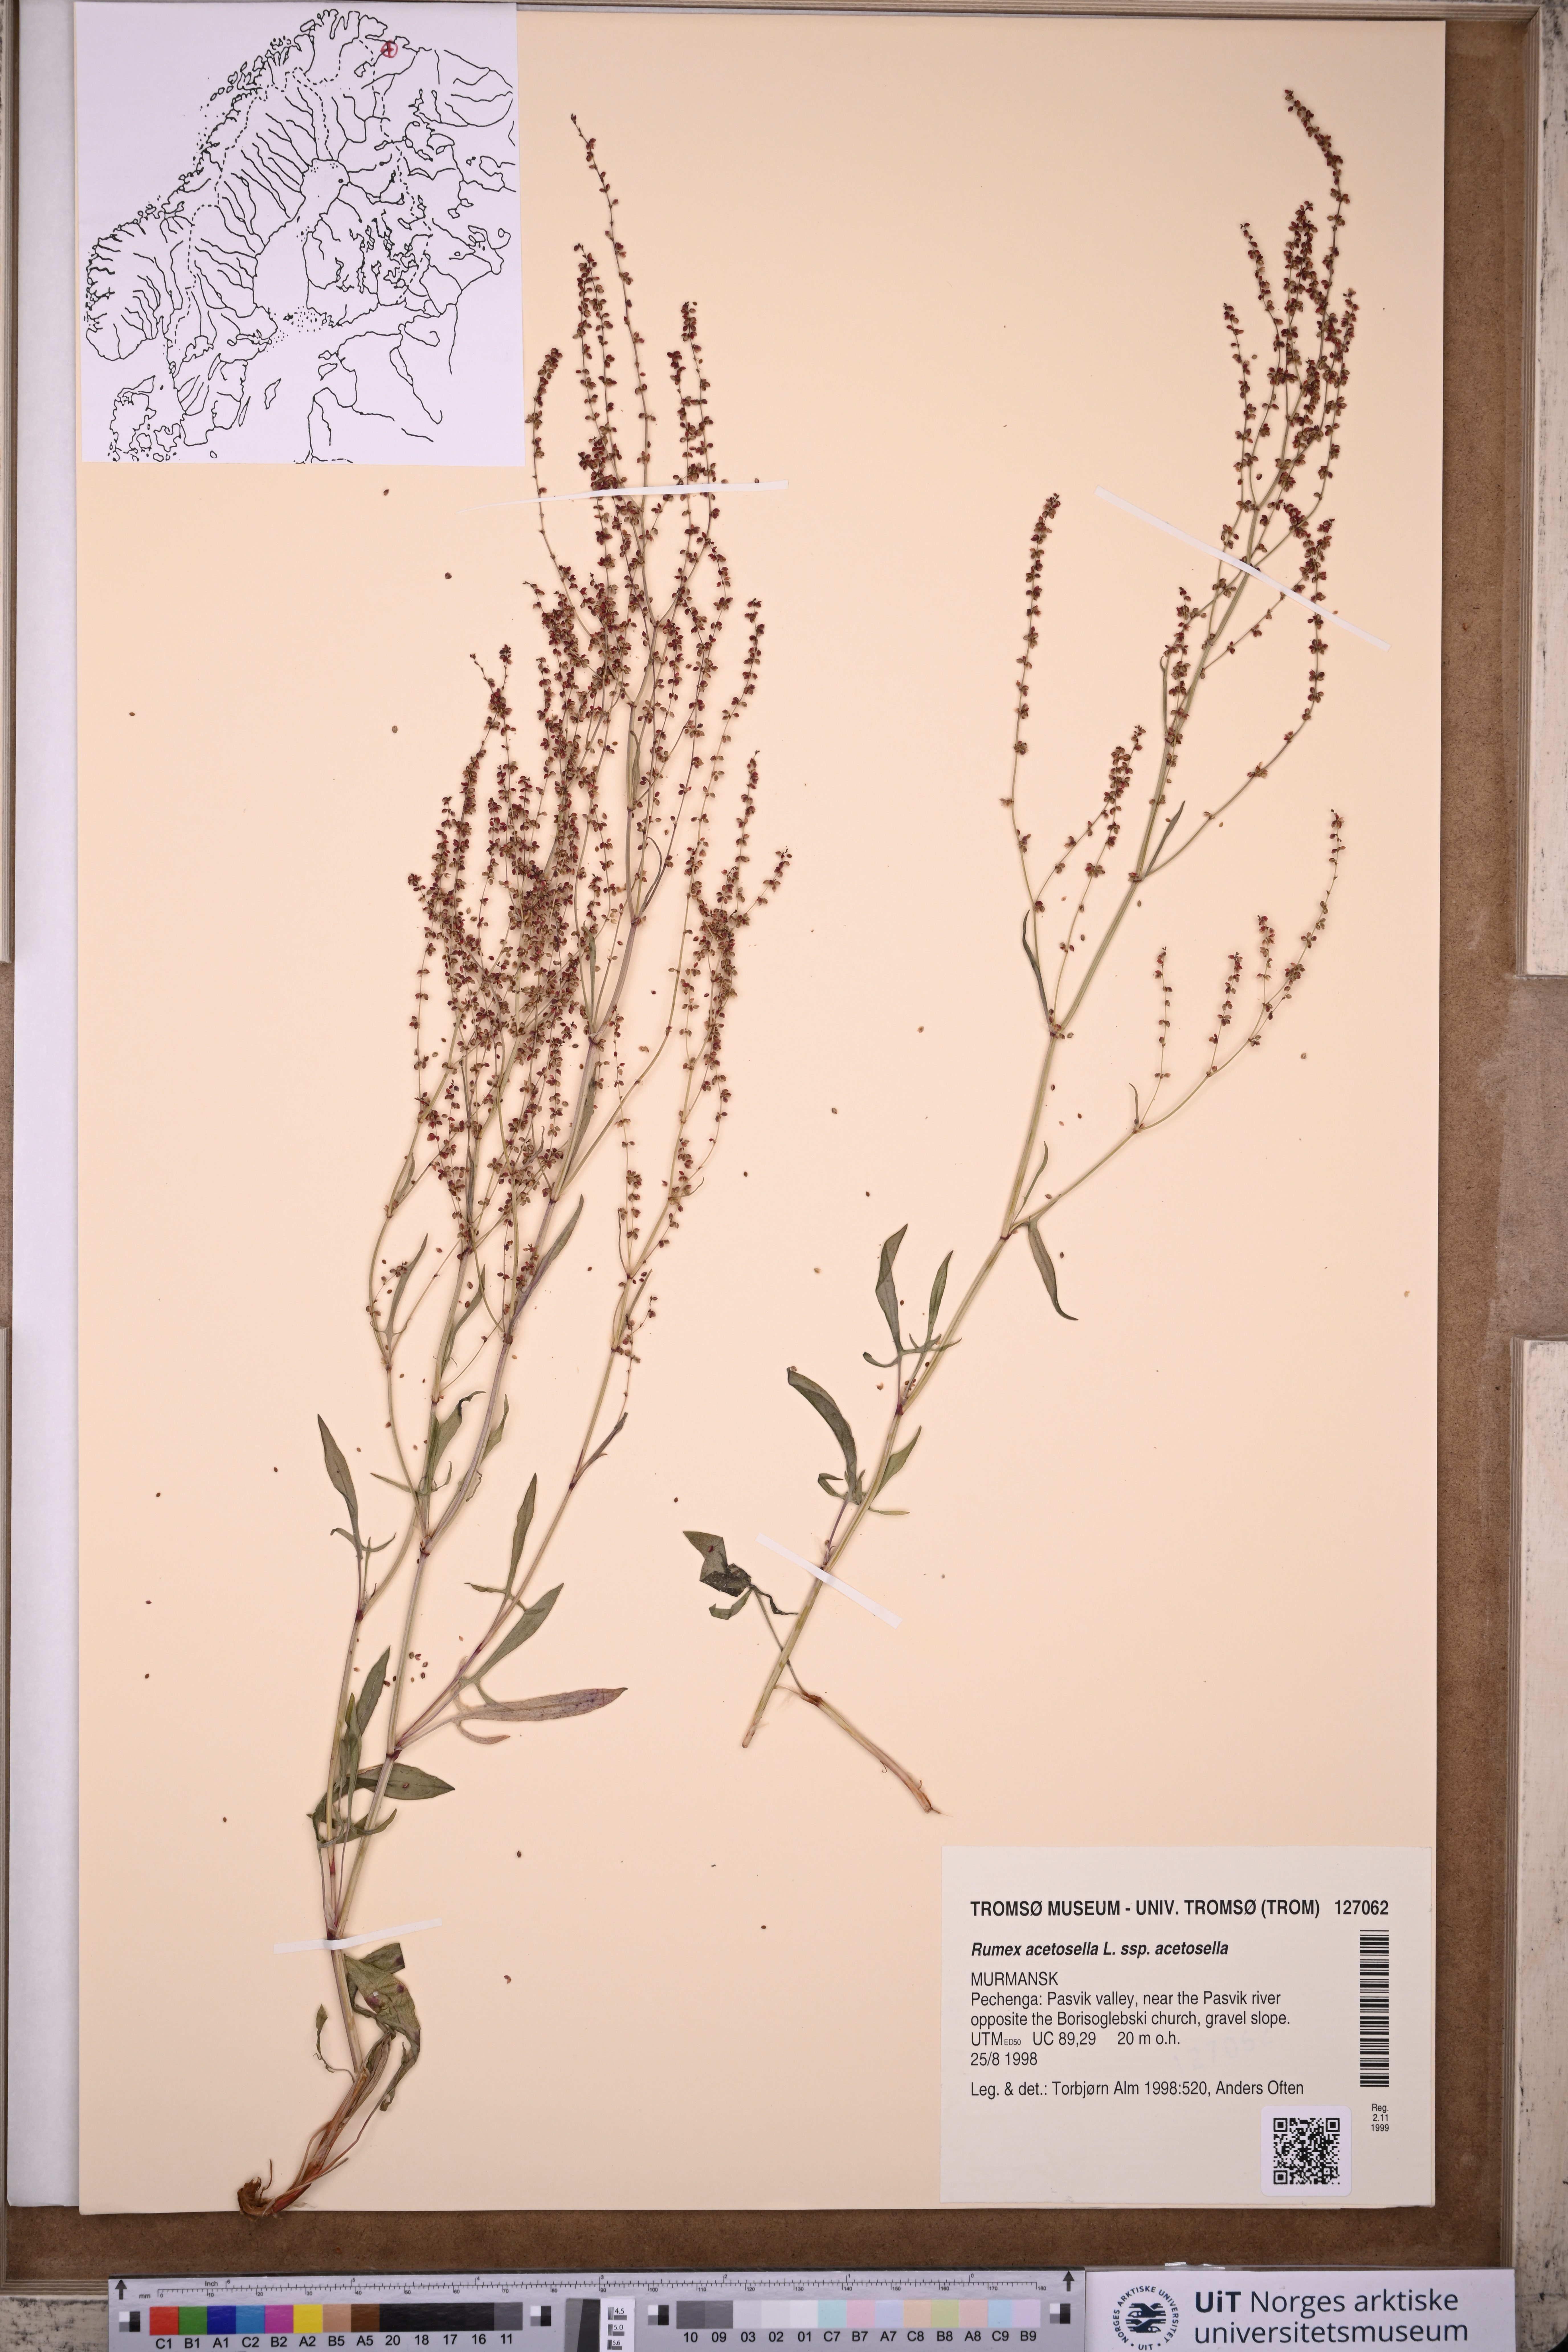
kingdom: Plantae
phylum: Tracheophyta
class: Magnoliopsida
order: Caryophyllales
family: Polygonaceae
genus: Rumex
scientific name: Rumex acetosella
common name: Common sheep sorrel
